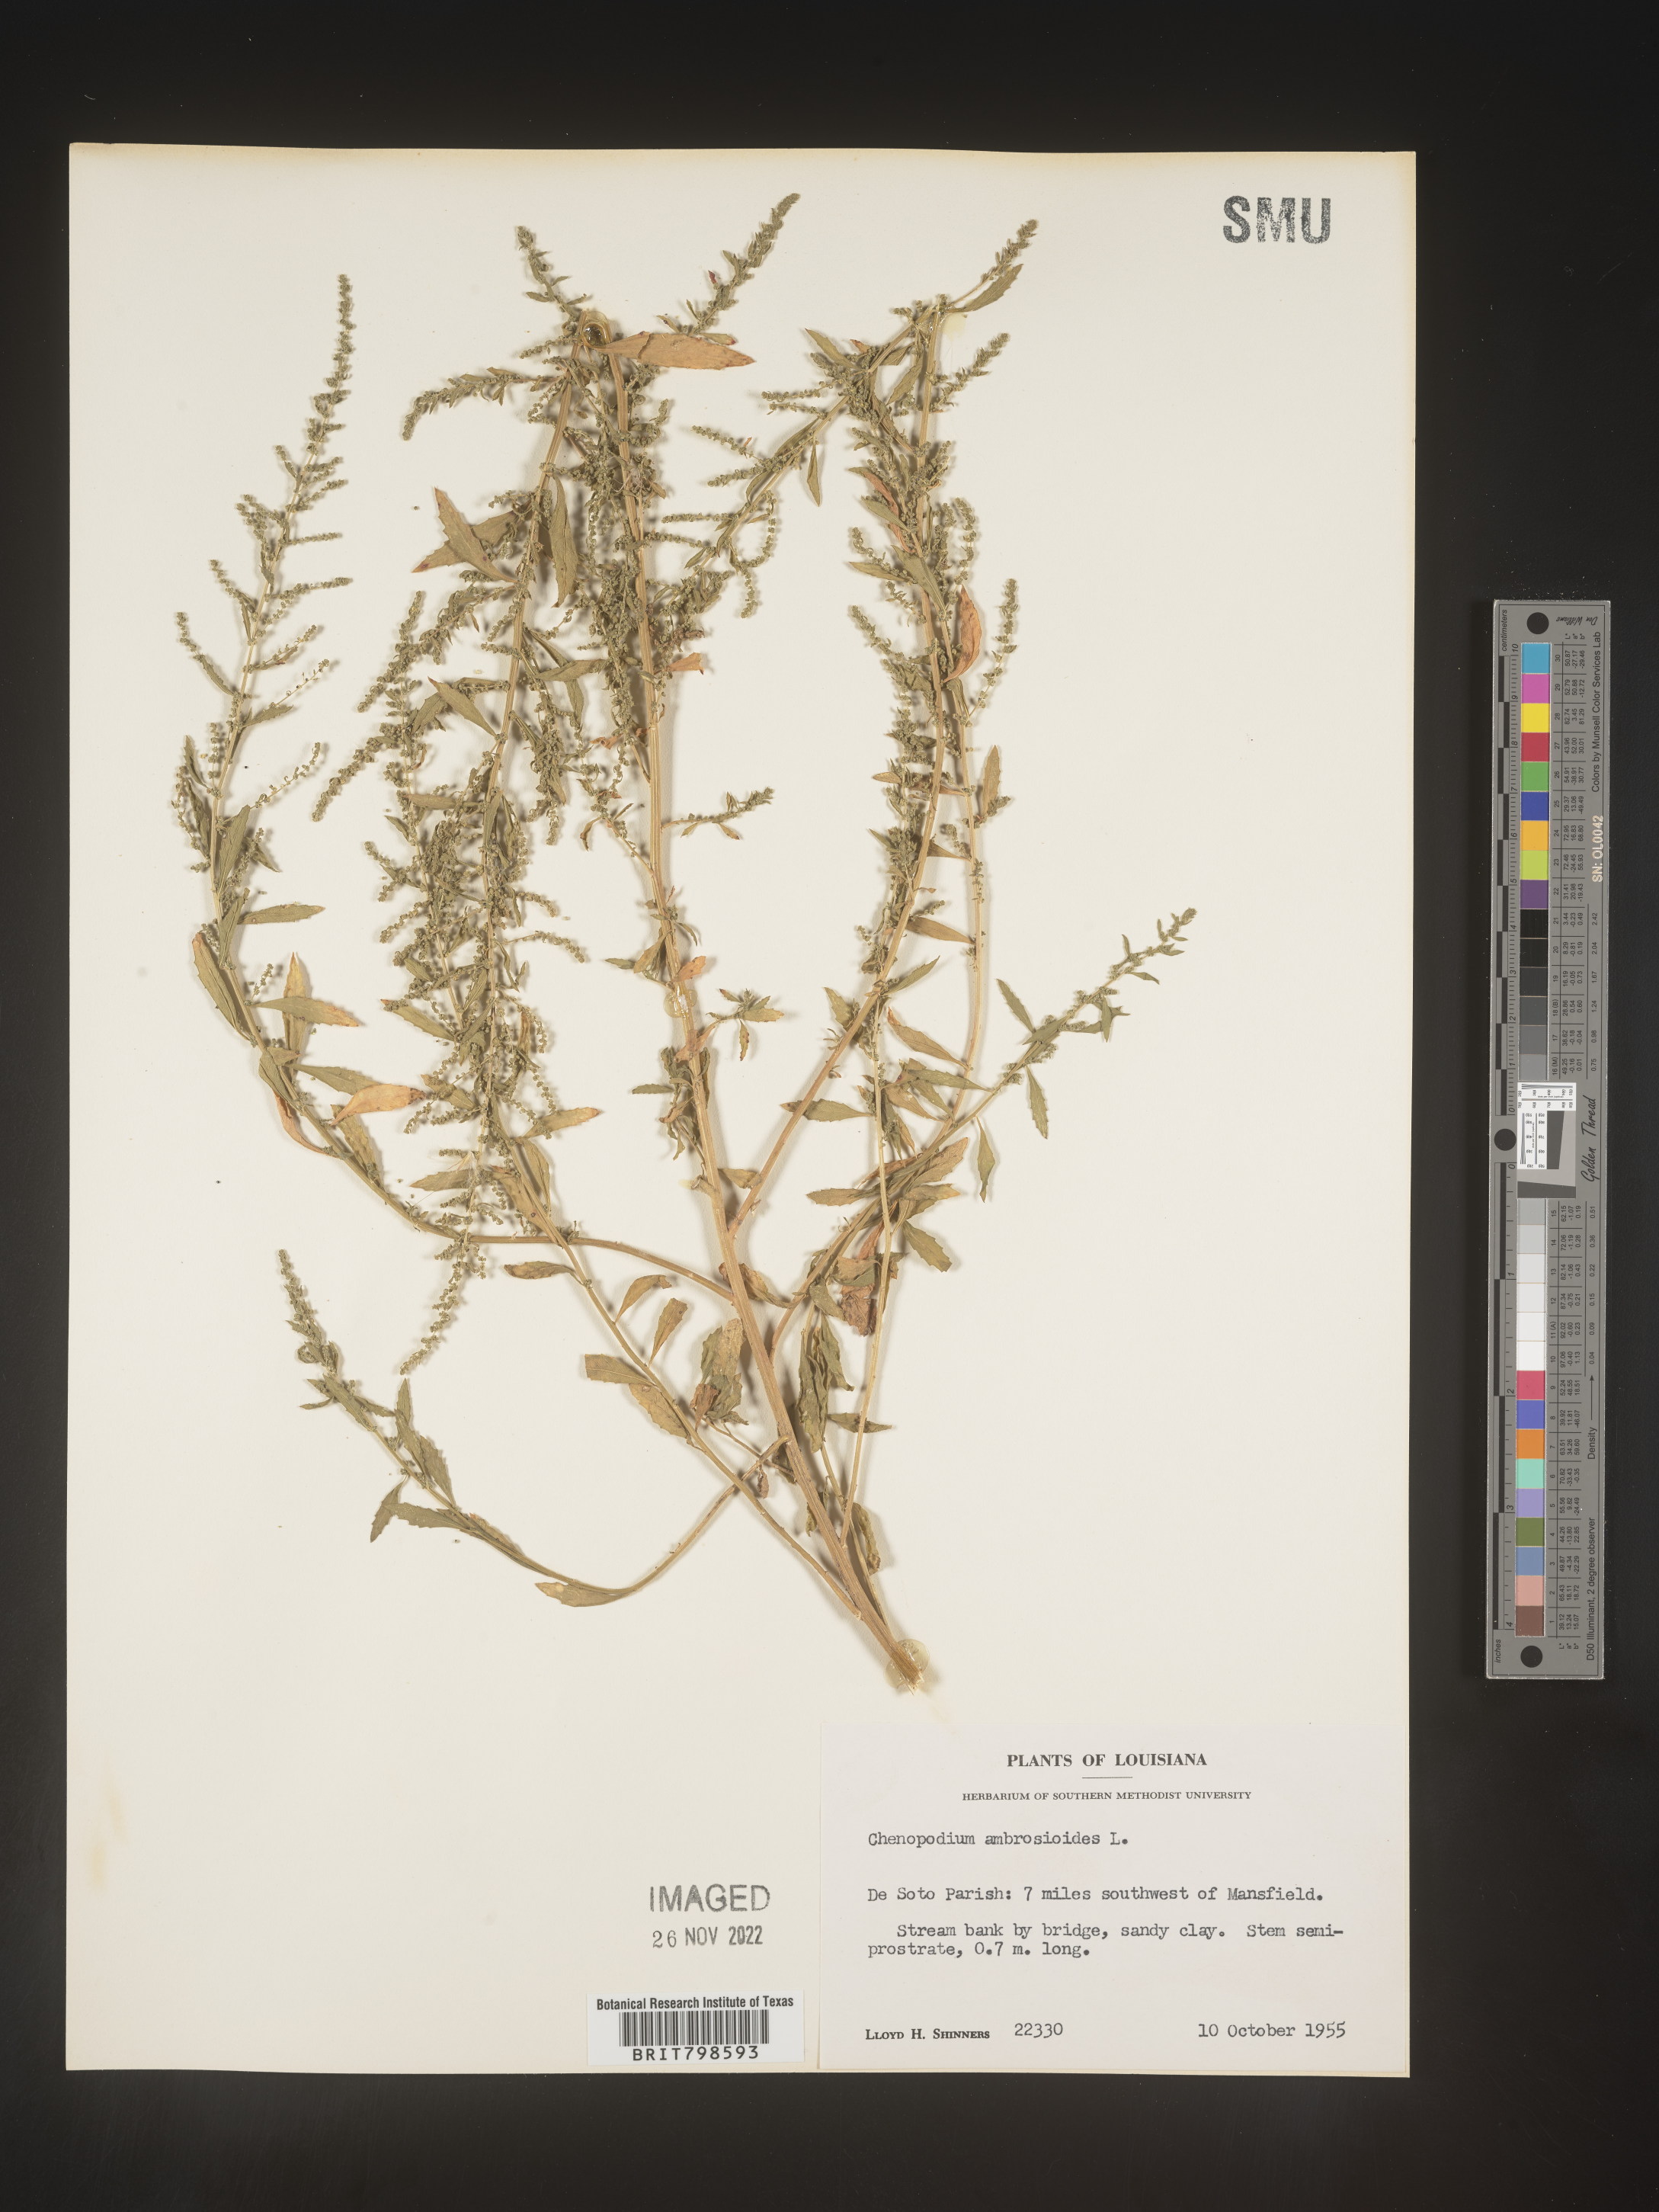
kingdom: Plantae
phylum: Tracheophyta
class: Magnoliopsida
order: Caryophyllales
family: Amaranthaceae
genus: Dysphania
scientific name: Dysphania ambrosioides
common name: Wormseed
